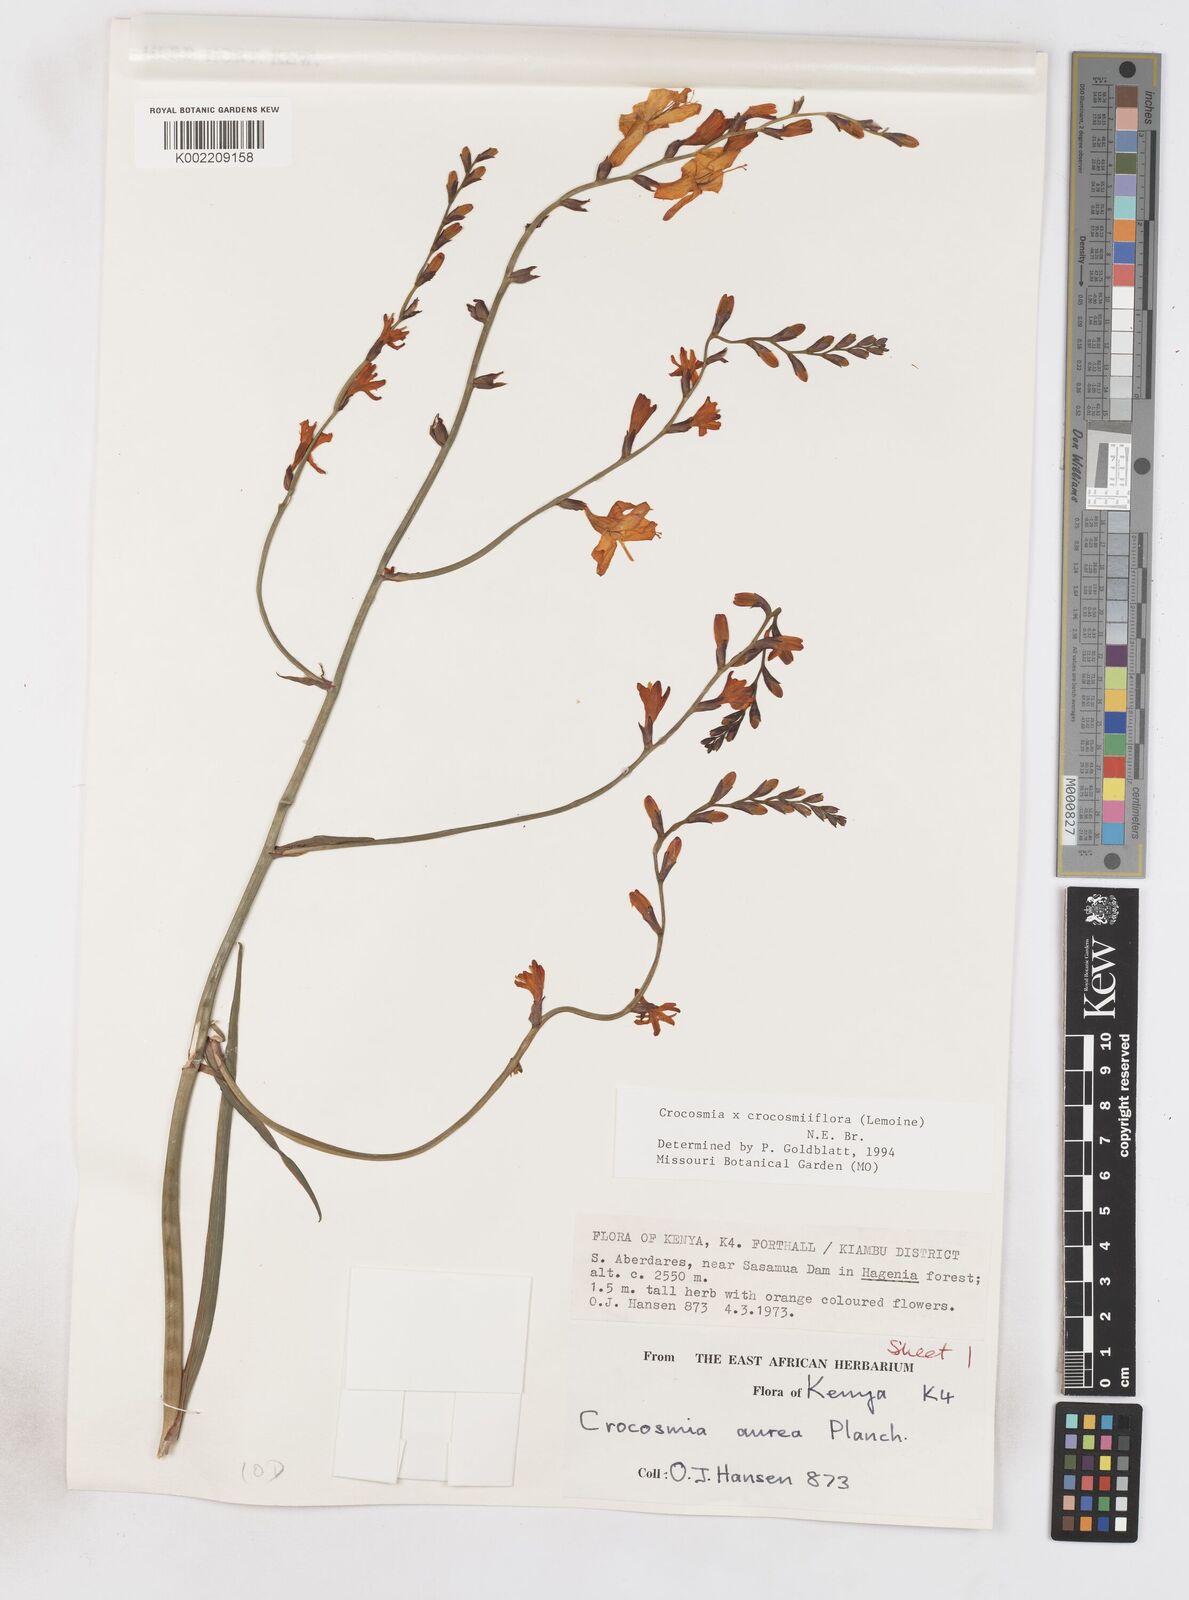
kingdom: Plantae
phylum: Tracheophyta
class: Liliopsida
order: Asparagales
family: Iridaceae
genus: Crocosmia
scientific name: Crocosmia aurea
